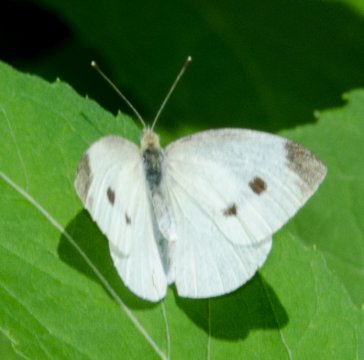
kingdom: Animalia
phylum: Arthropoda
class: Insecta
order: Lepidoptera
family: Pieridae
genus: Pieris
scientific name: Pieris rapae
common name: Cabbage White
